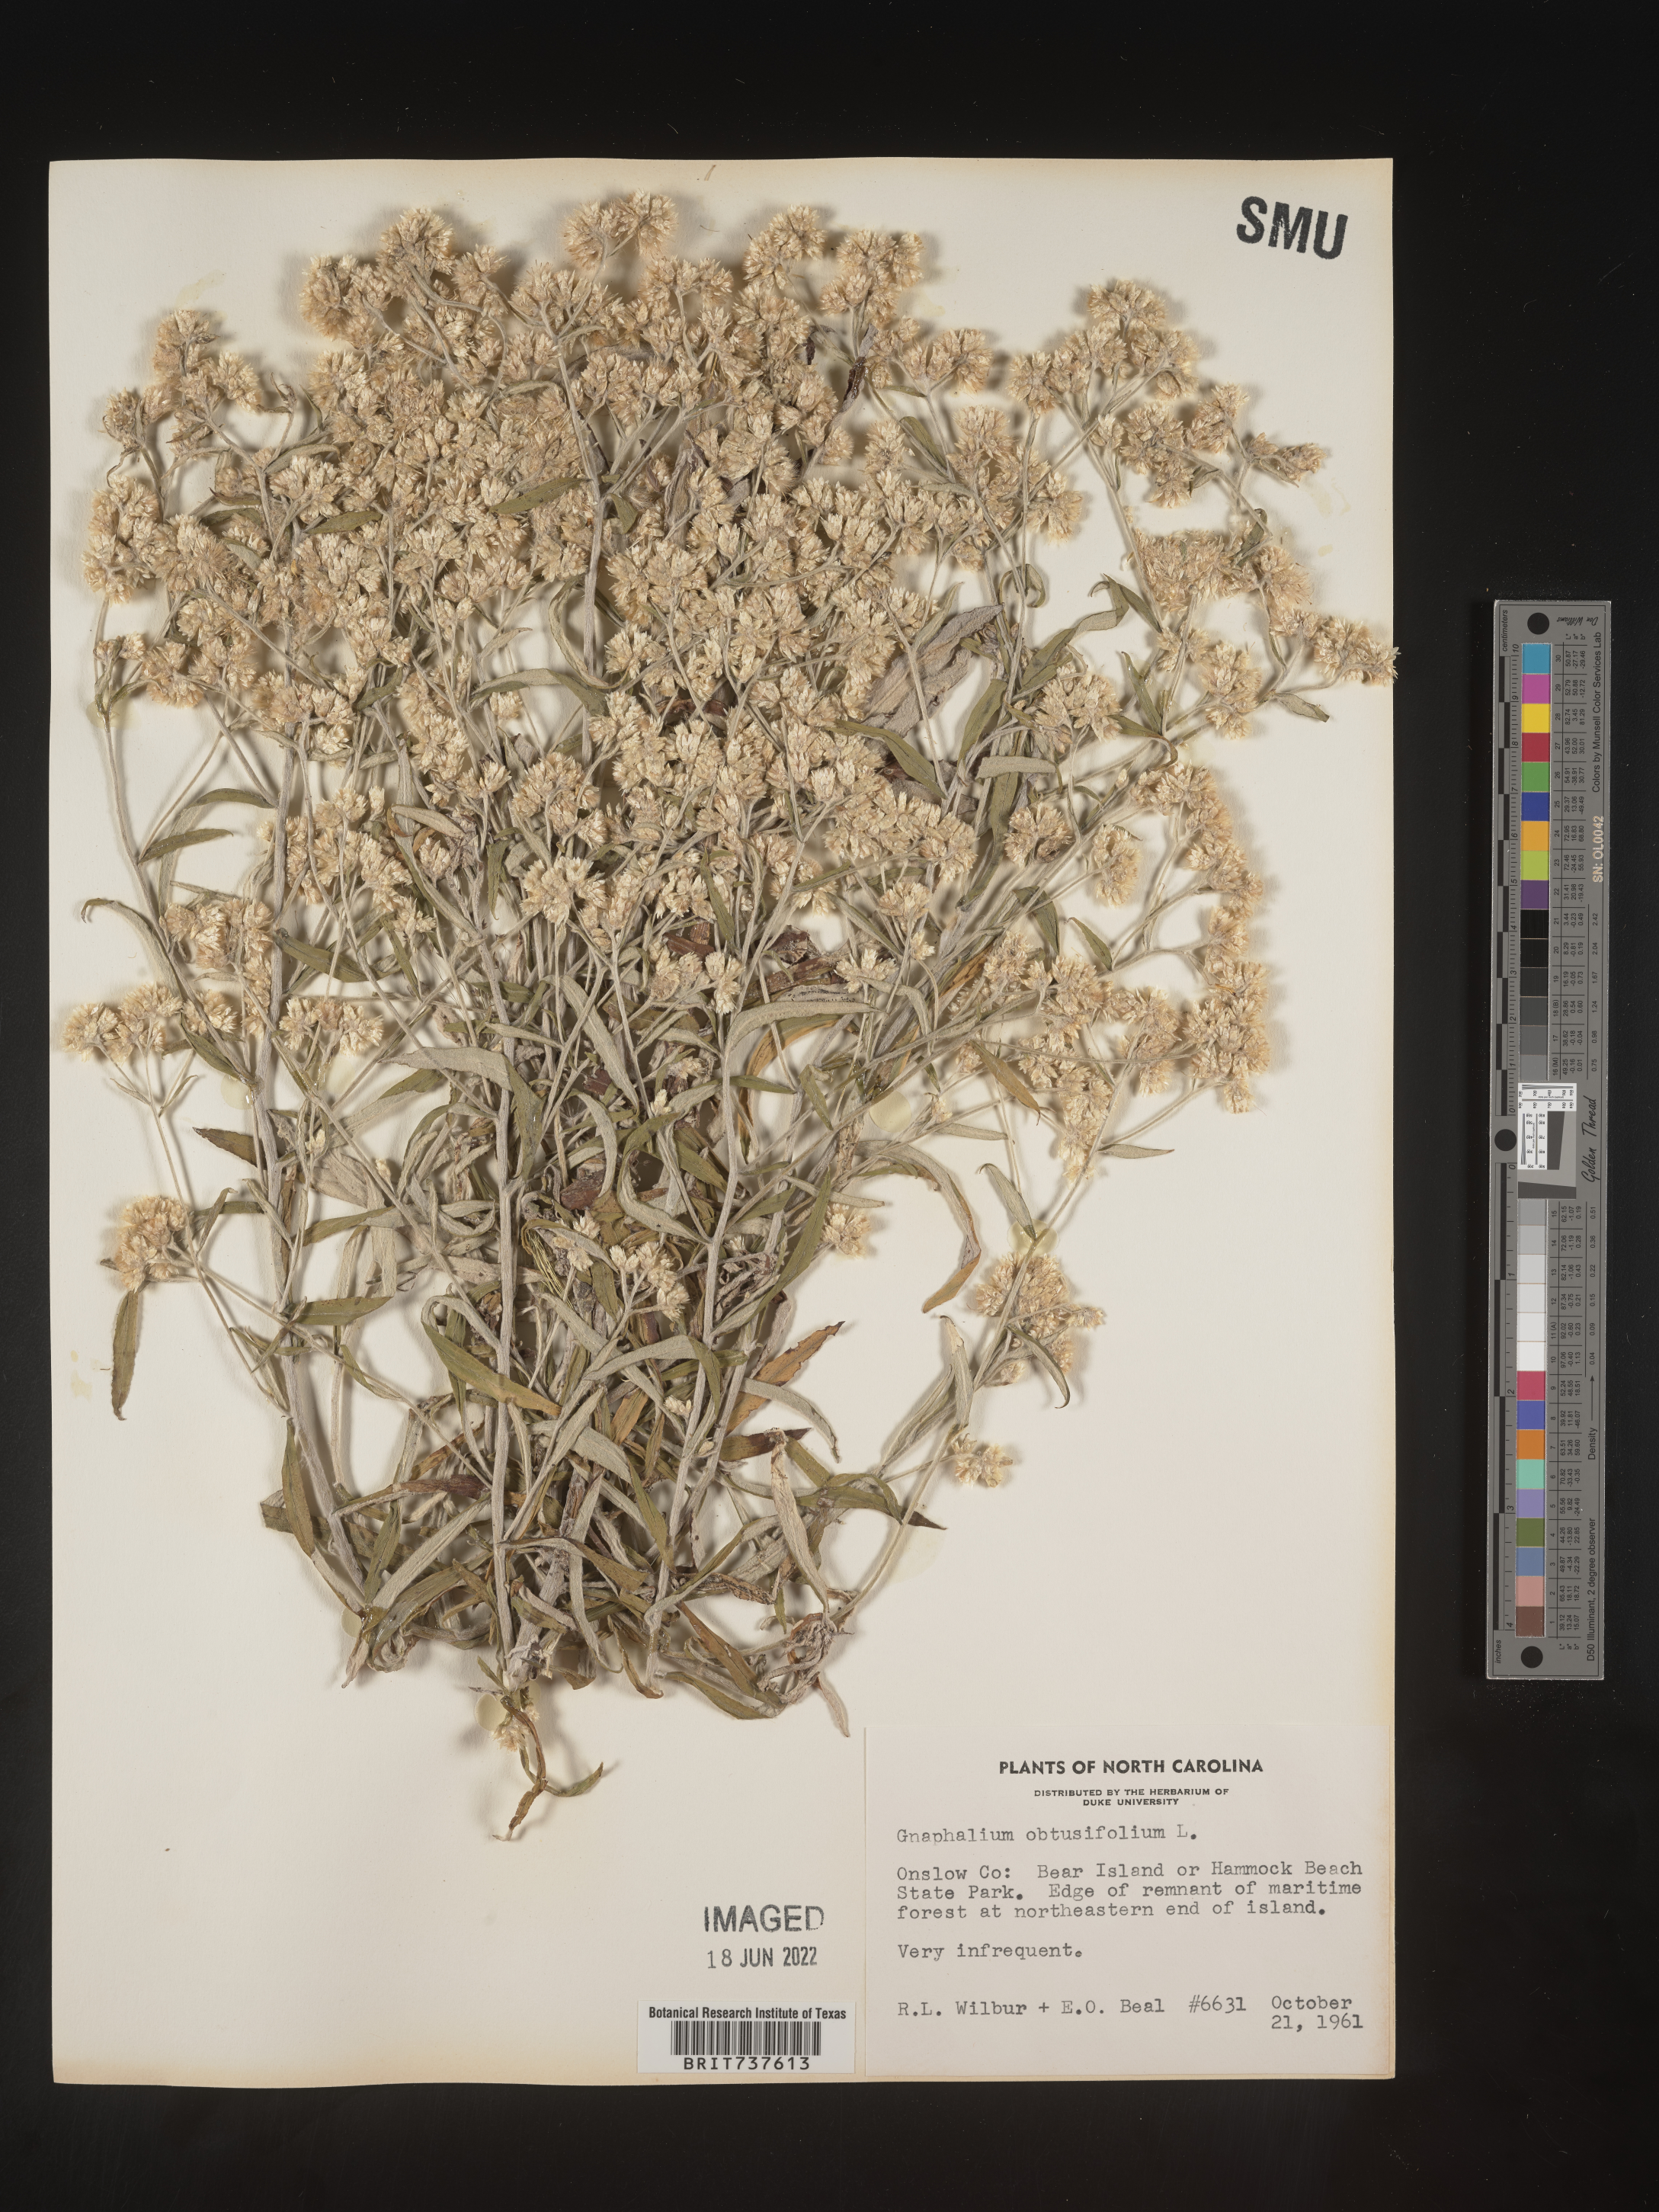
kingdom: Plantae
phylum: Tracheophyta
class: Magnoliopsida
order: Asterales
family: Asteraceae
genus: Pseudognaphalium
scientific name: Pseudognaphalium obtusifolium
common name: Eastern rabbit-tobacco
